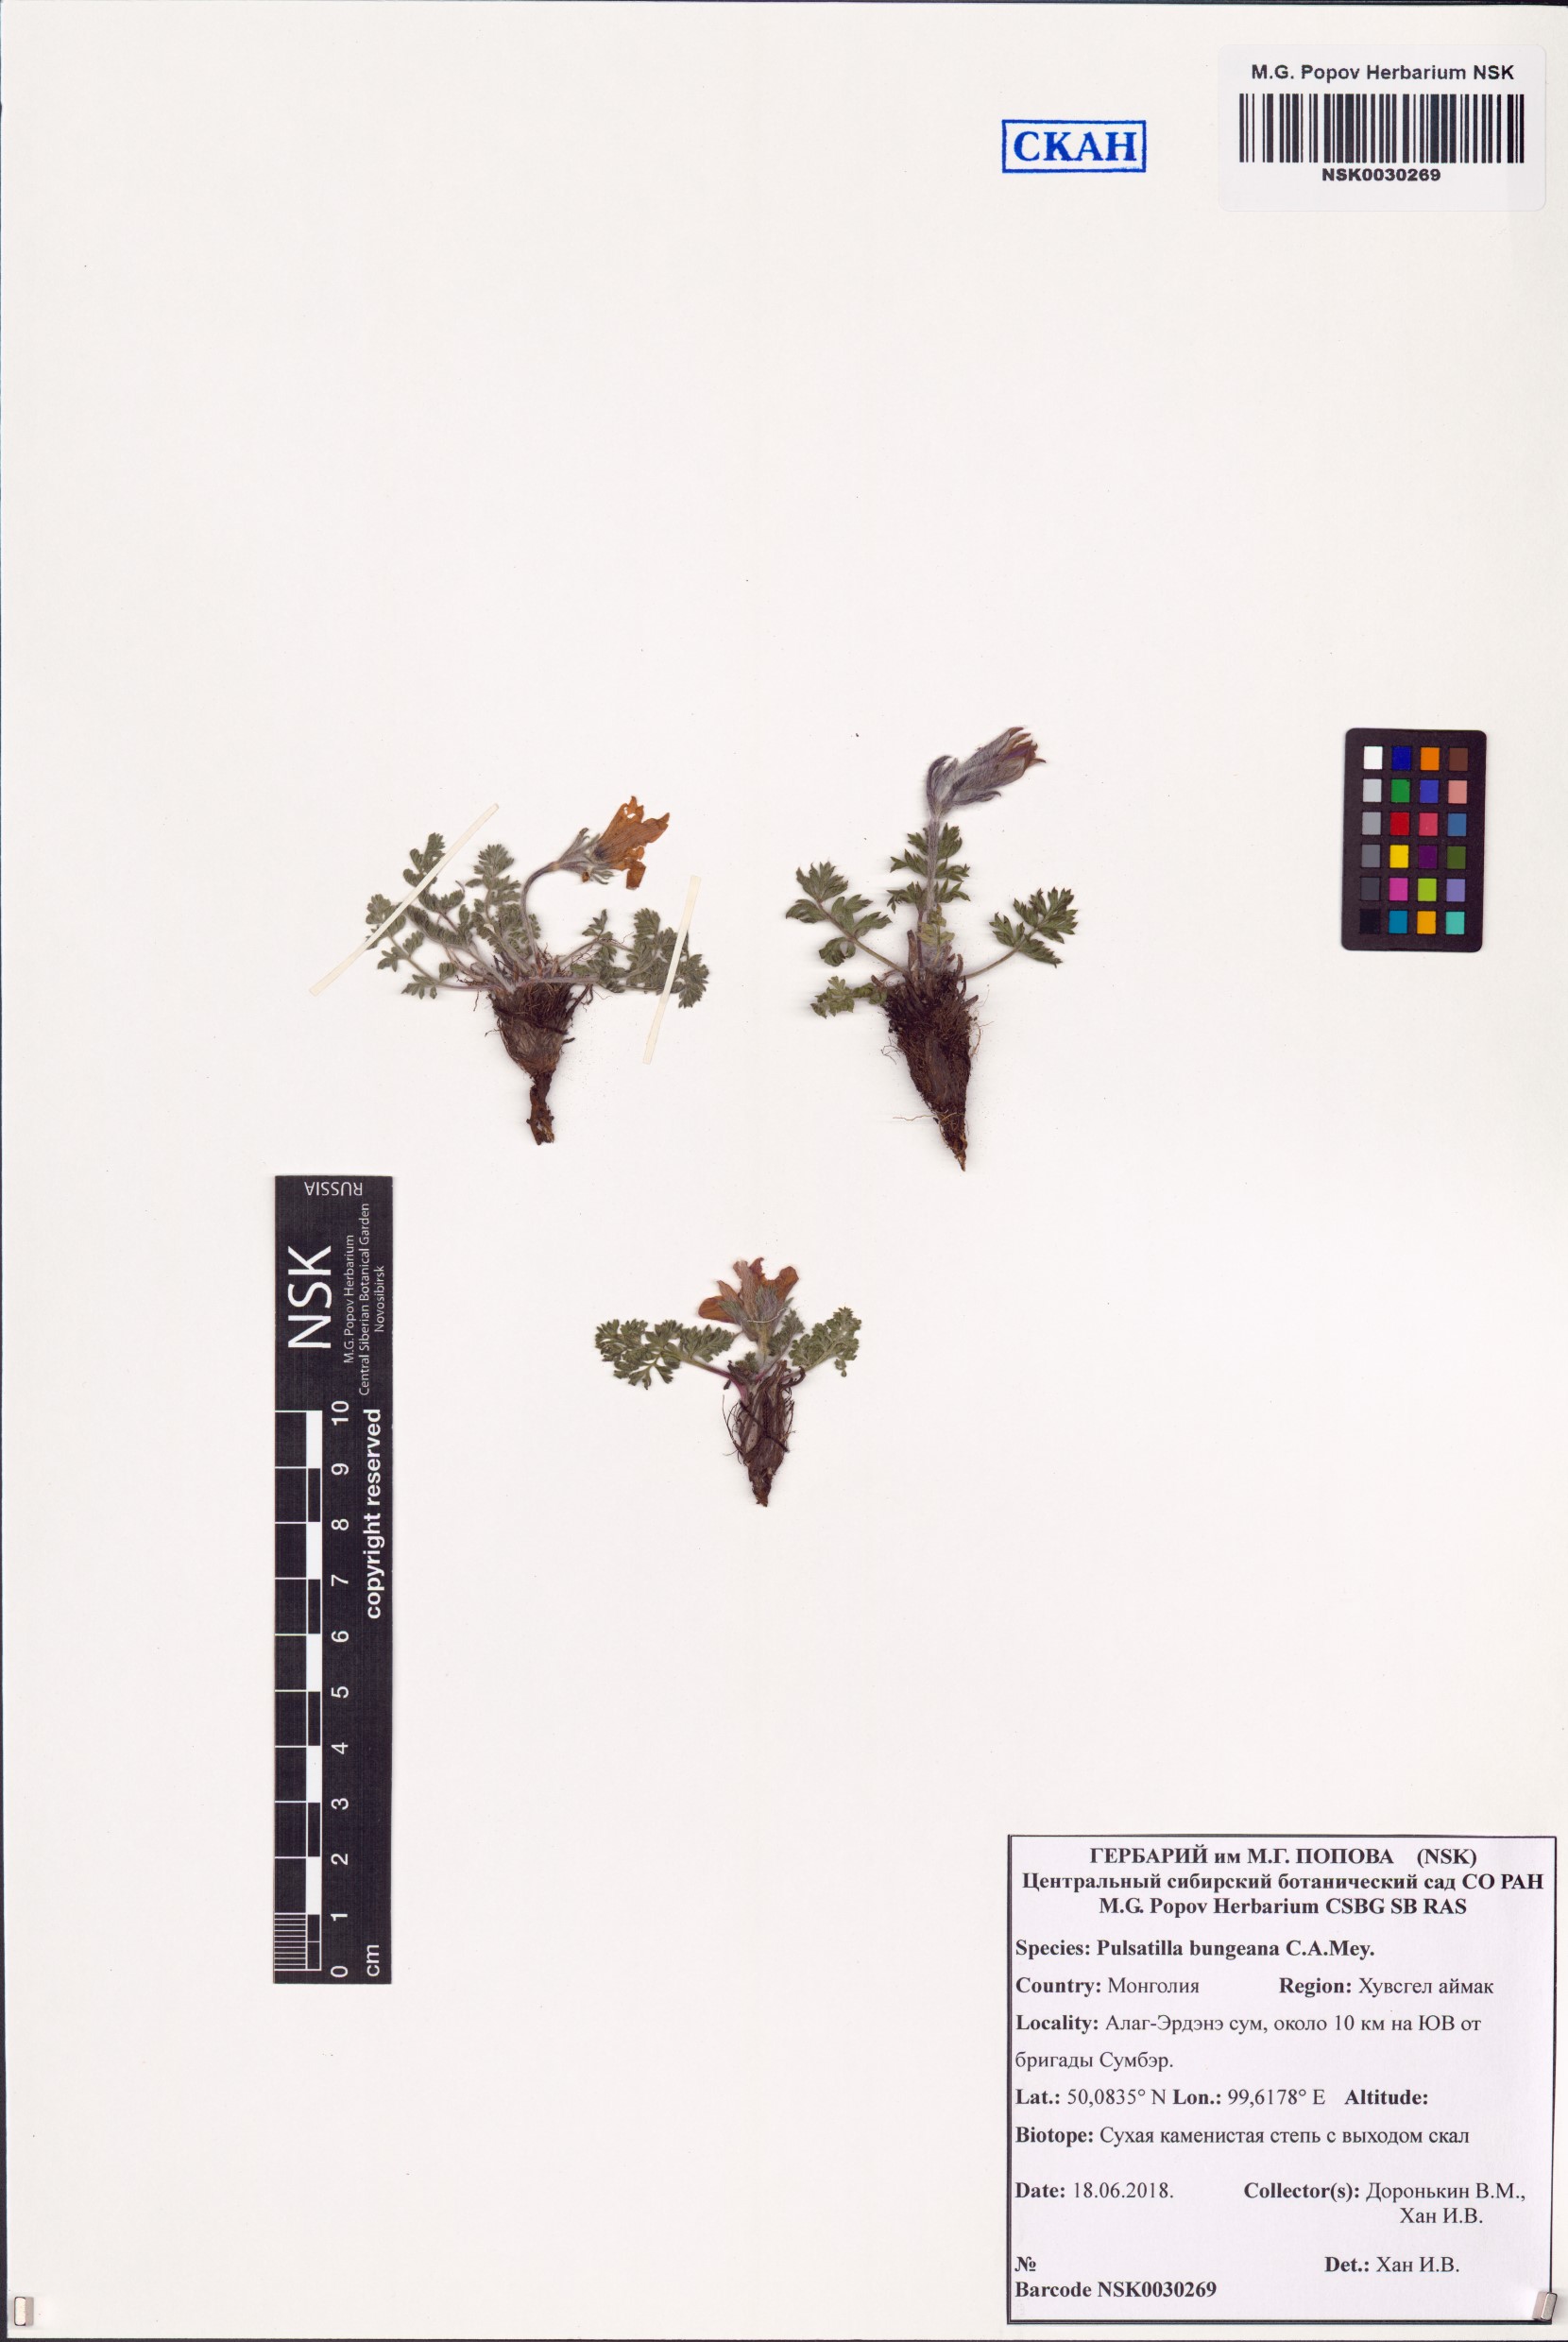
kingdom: Plantae
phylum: Tracheophyta
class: Magnoliopsida
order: Ranunculales
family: Ranunculaceae
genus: Pulsatilla
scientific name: Pulsatilla bungeana
